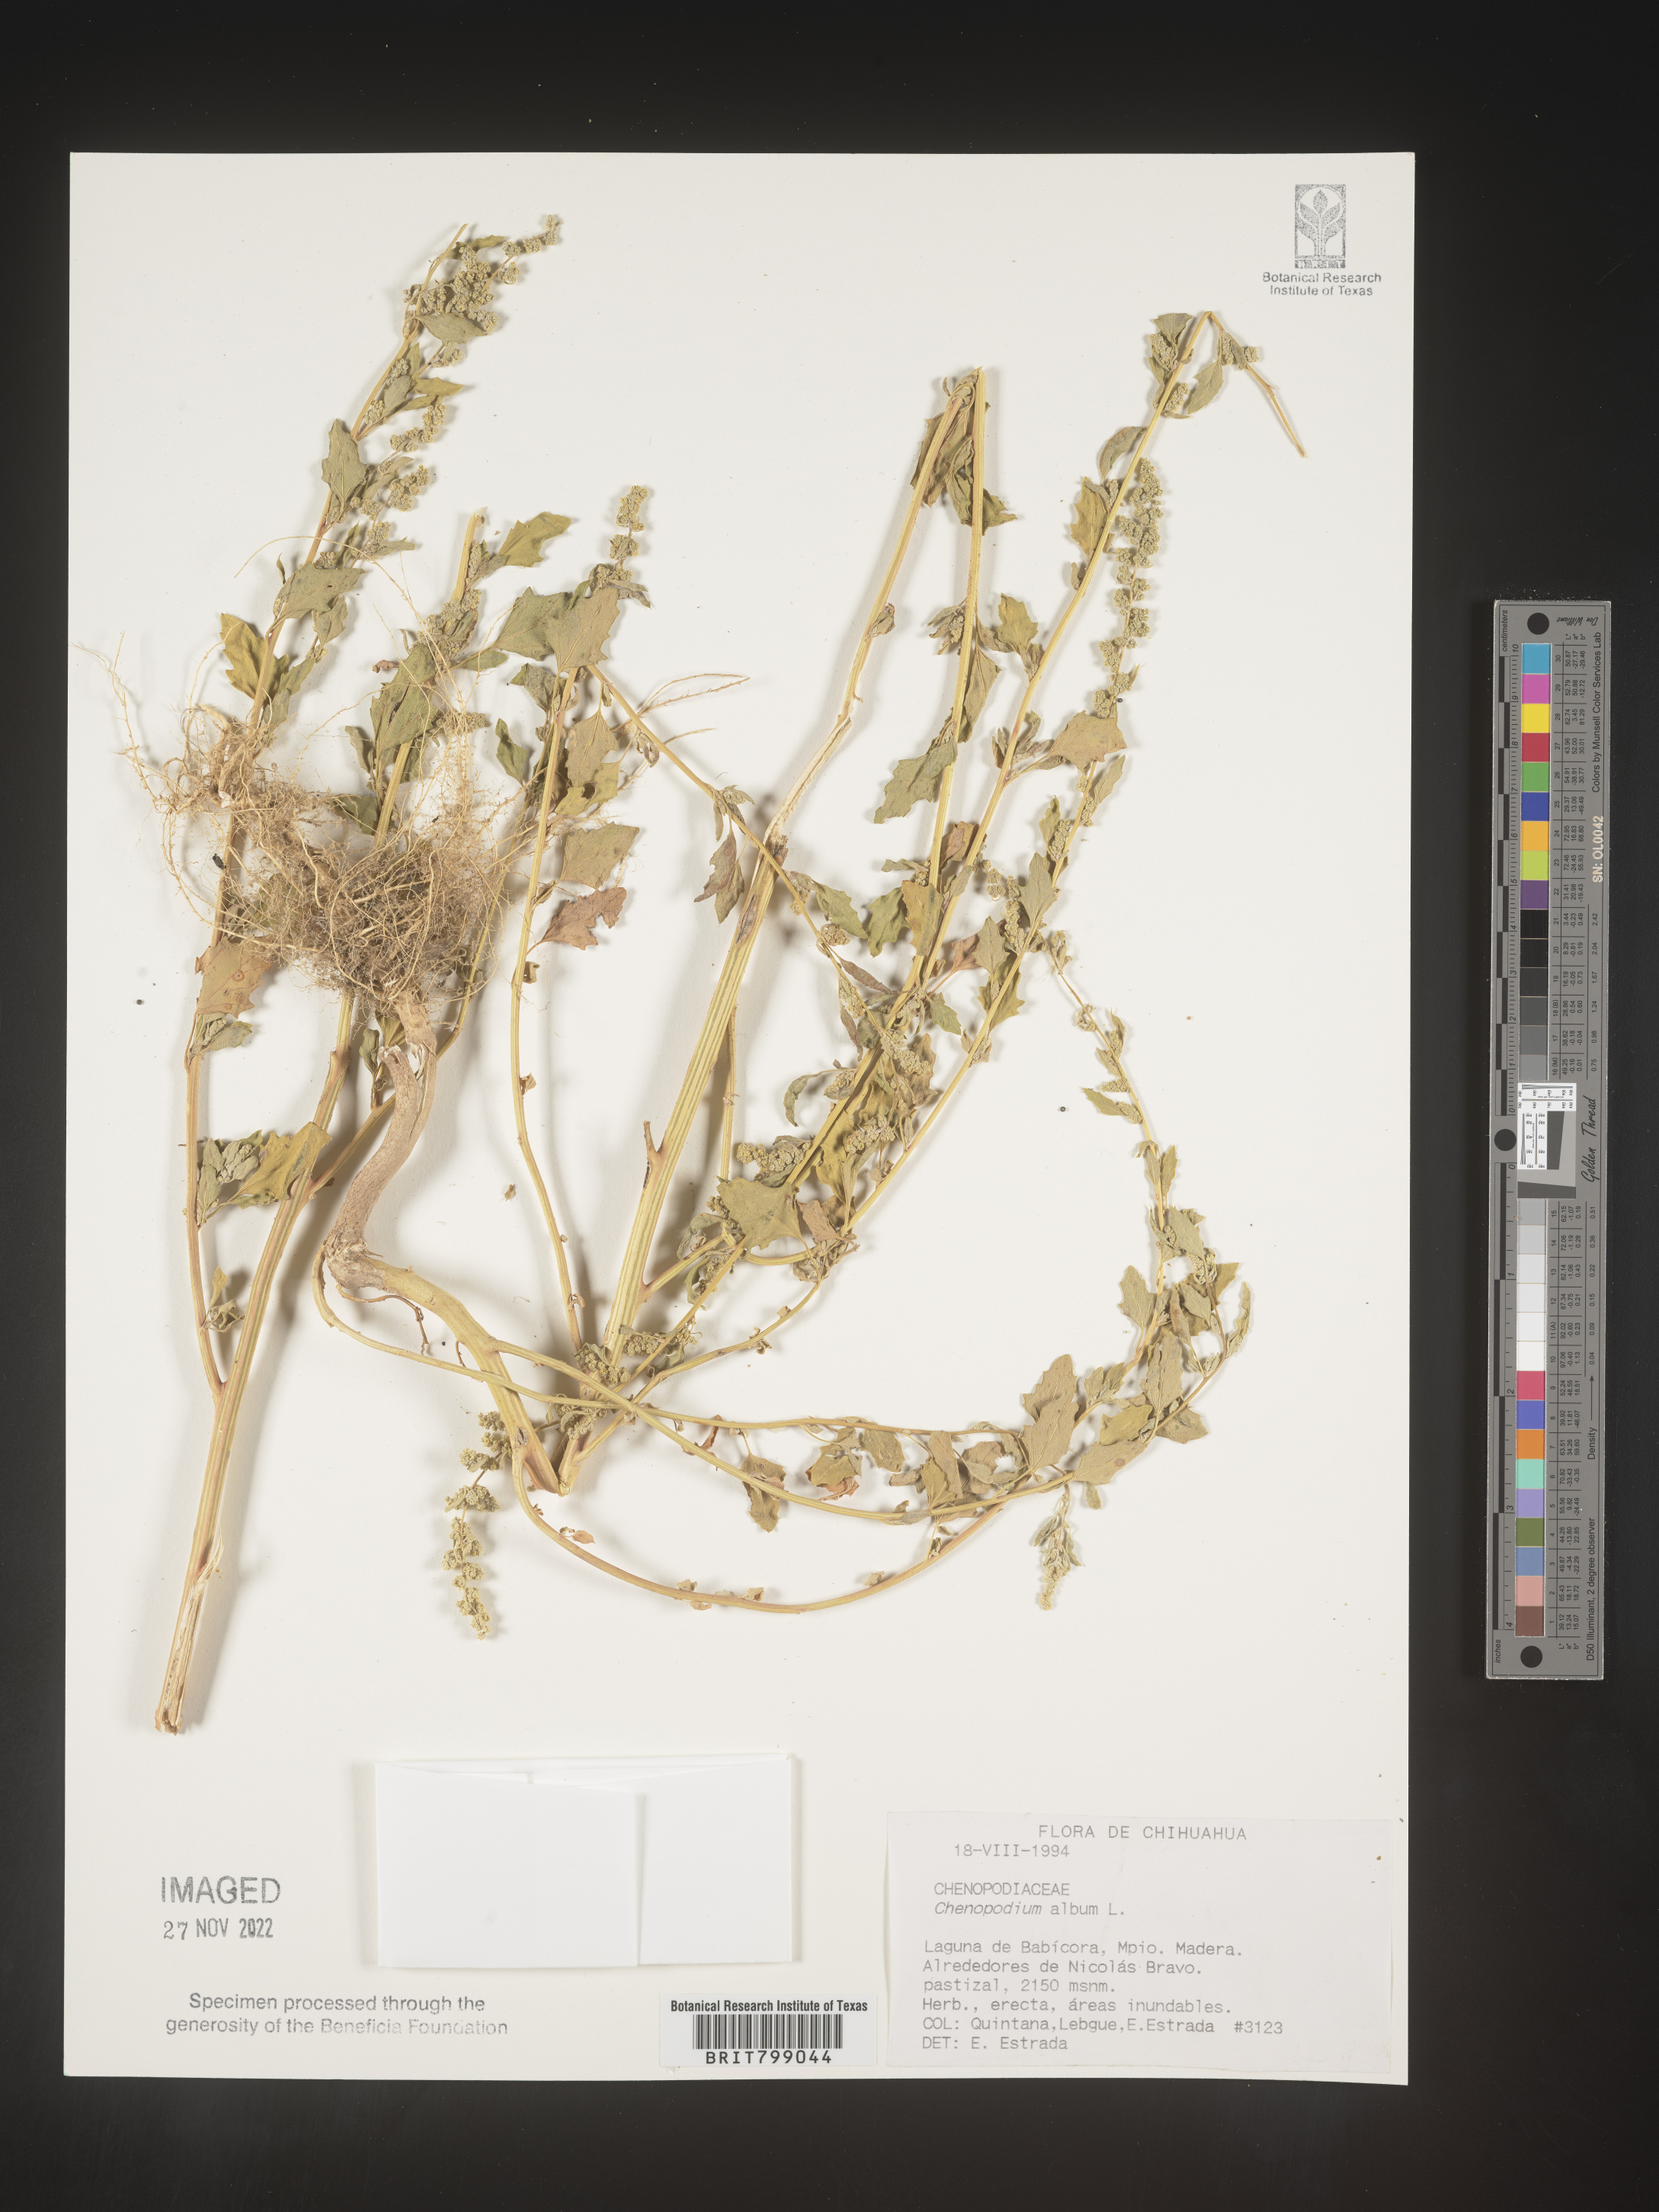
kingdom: Plantae
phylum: Tracheophyta
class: Magnoliopsida
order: Caryophyllales
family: Amaranthaceae
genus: Chenopodium
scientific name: Chenopodium
